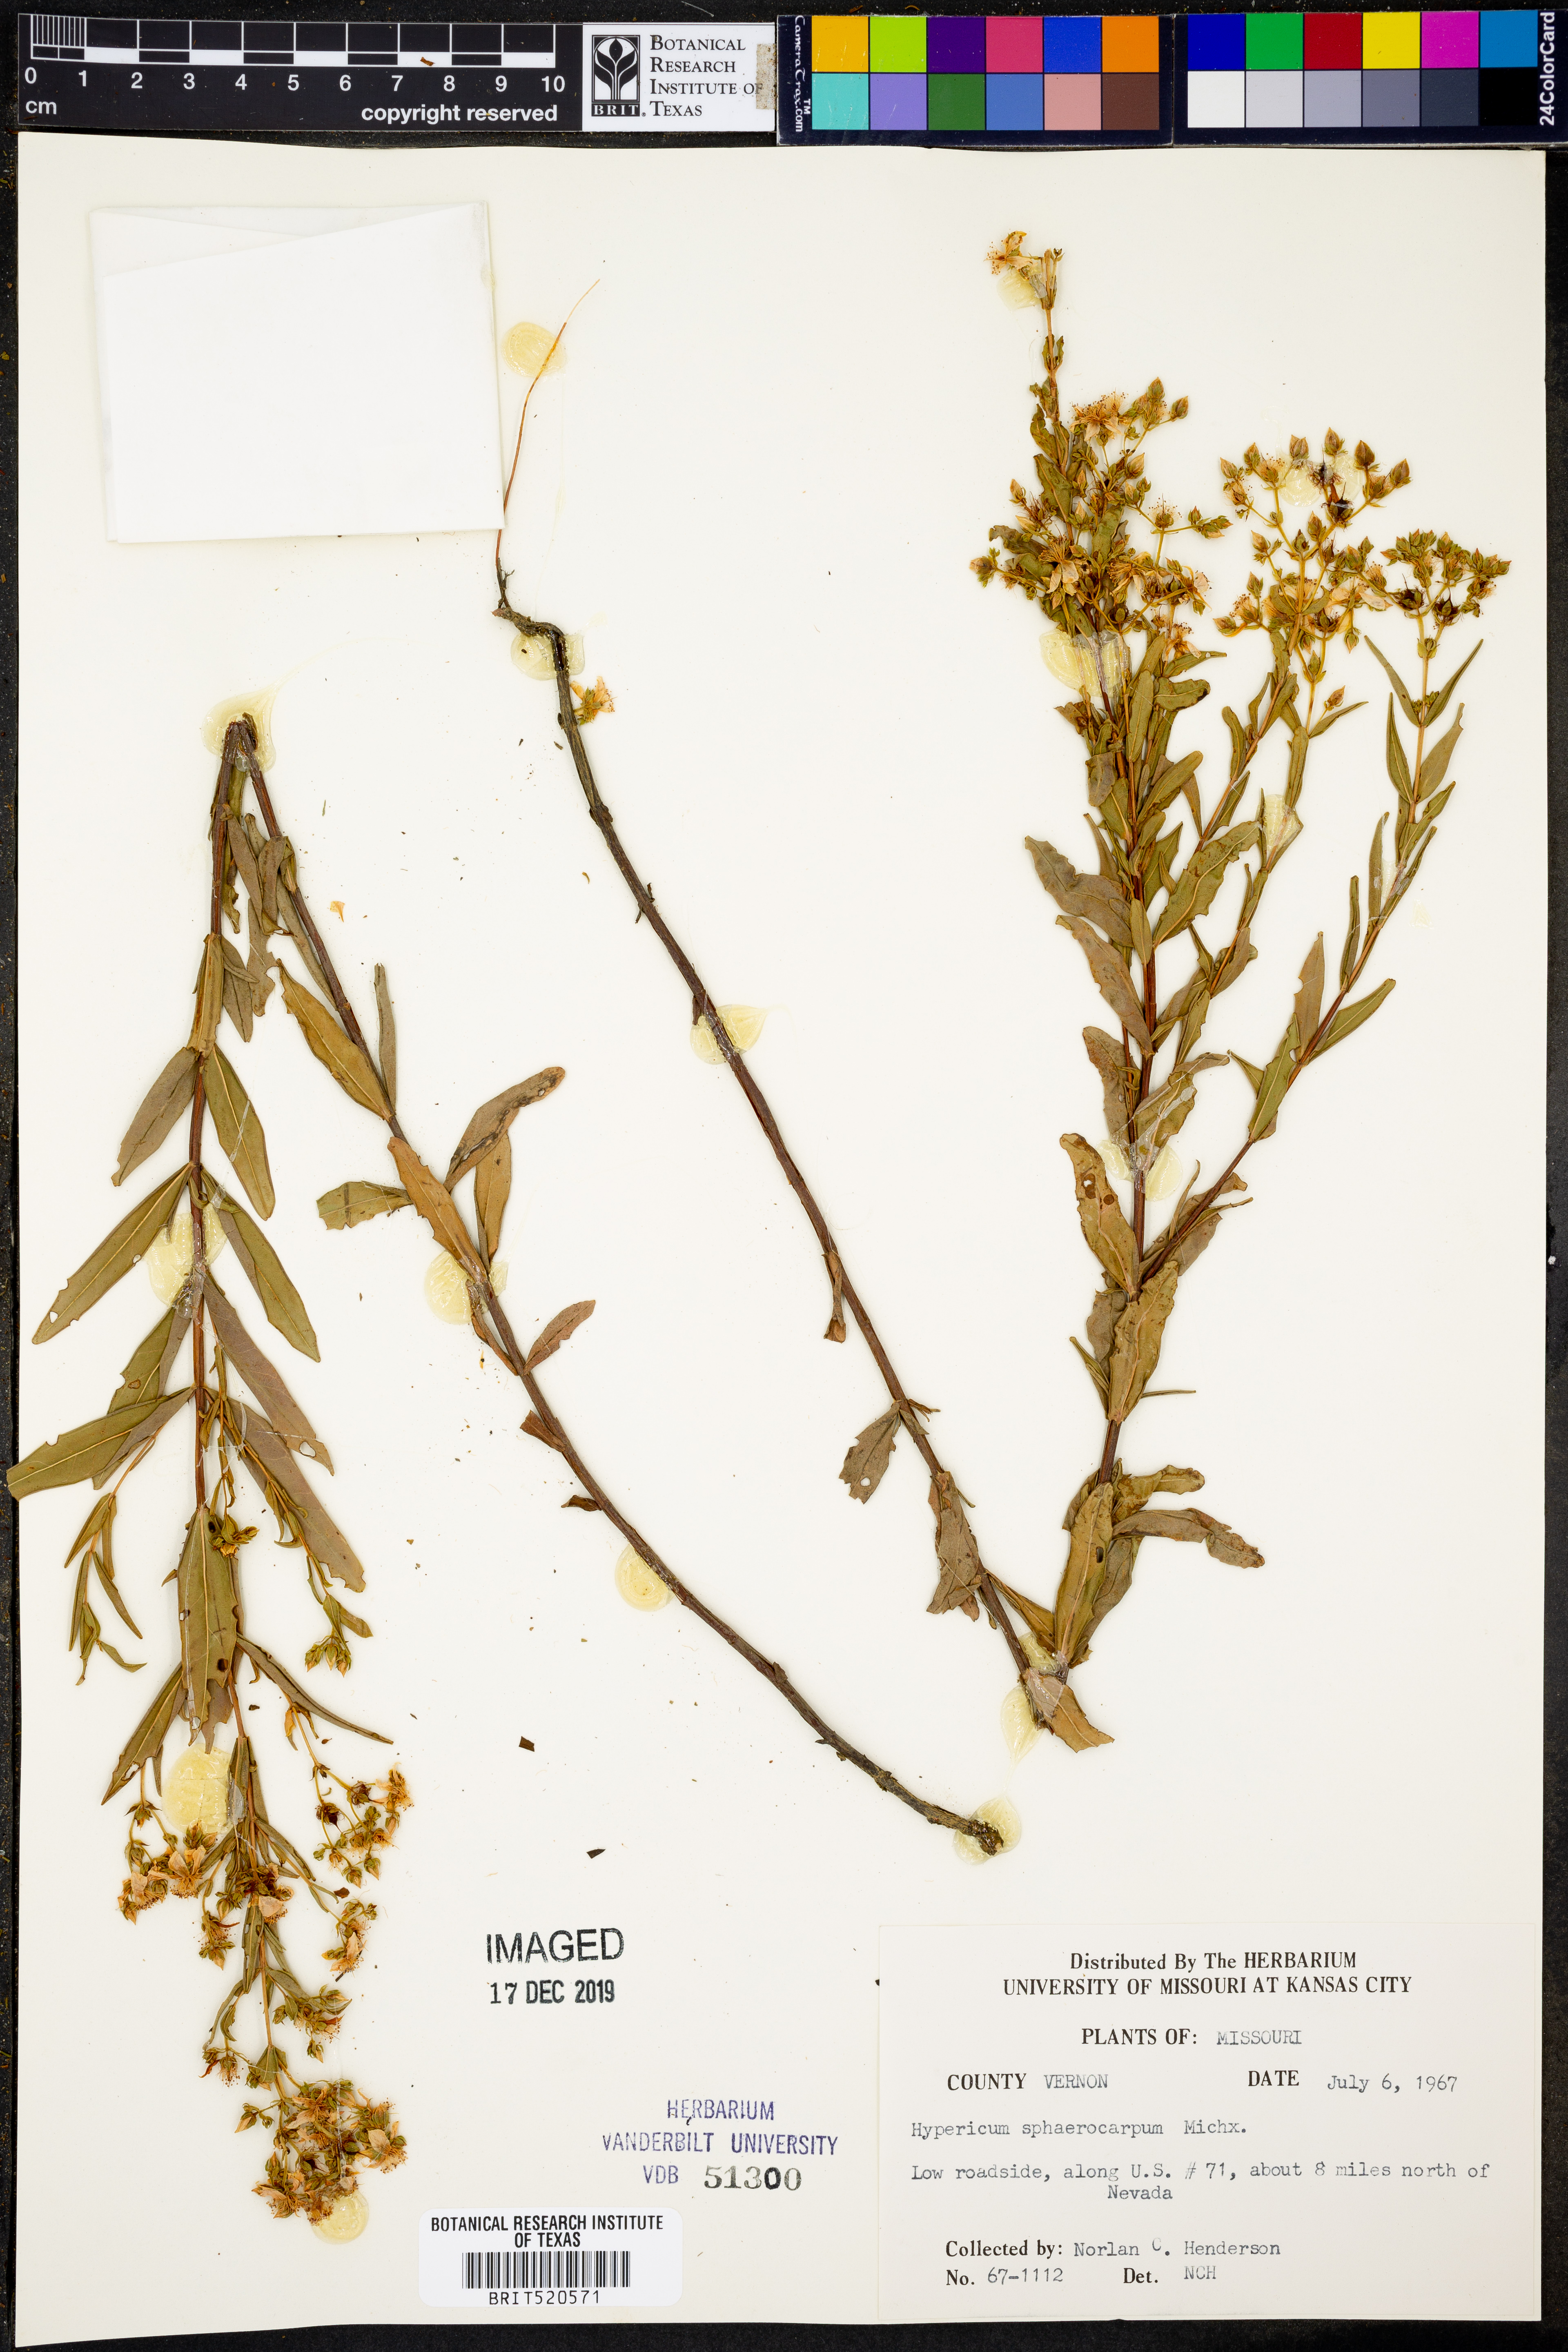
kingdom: Plantae
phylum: Tracheophyta
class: Magnoliopsida
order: Malpighiales
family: Hypericaceae
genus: Hypericum
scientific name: Hypericum sphaerocarpum
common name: Round-fruited st. john's-wort
